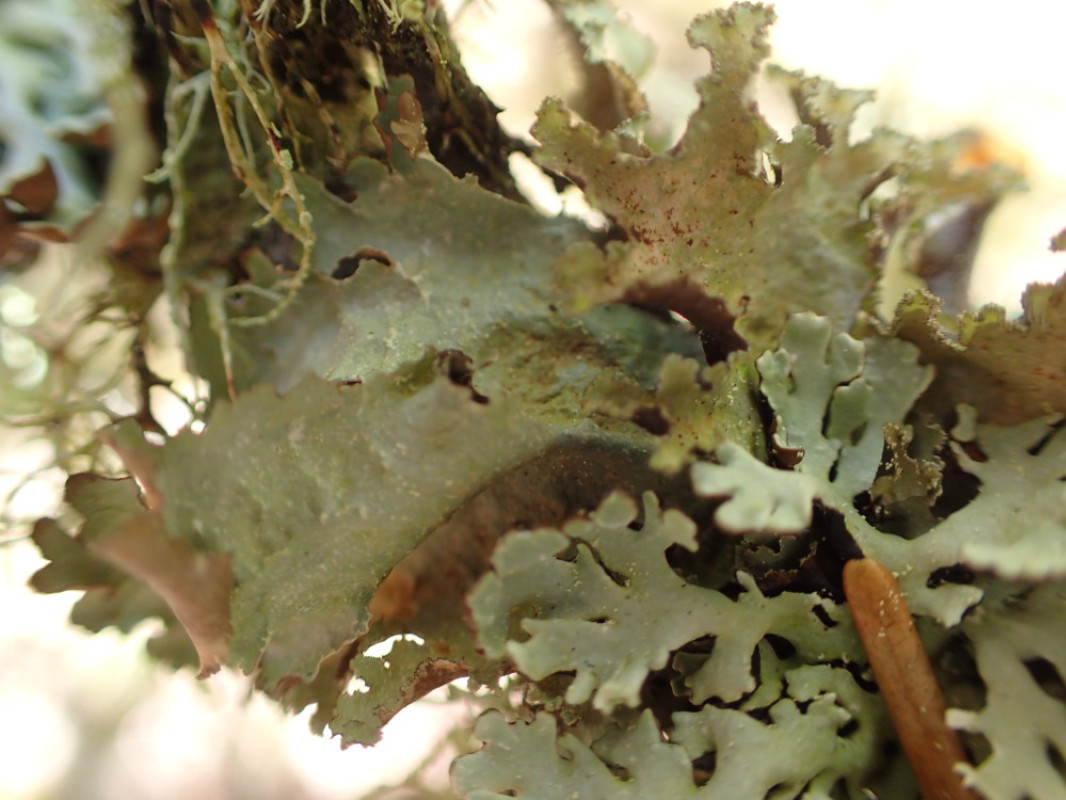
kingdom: Fungi
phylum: Ascomycota
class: Lecanoromycetes
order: Lecanorales
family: Parmeliaceae
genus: Platismatia
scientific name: Platismatia glauca
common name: blågrå papirlav
